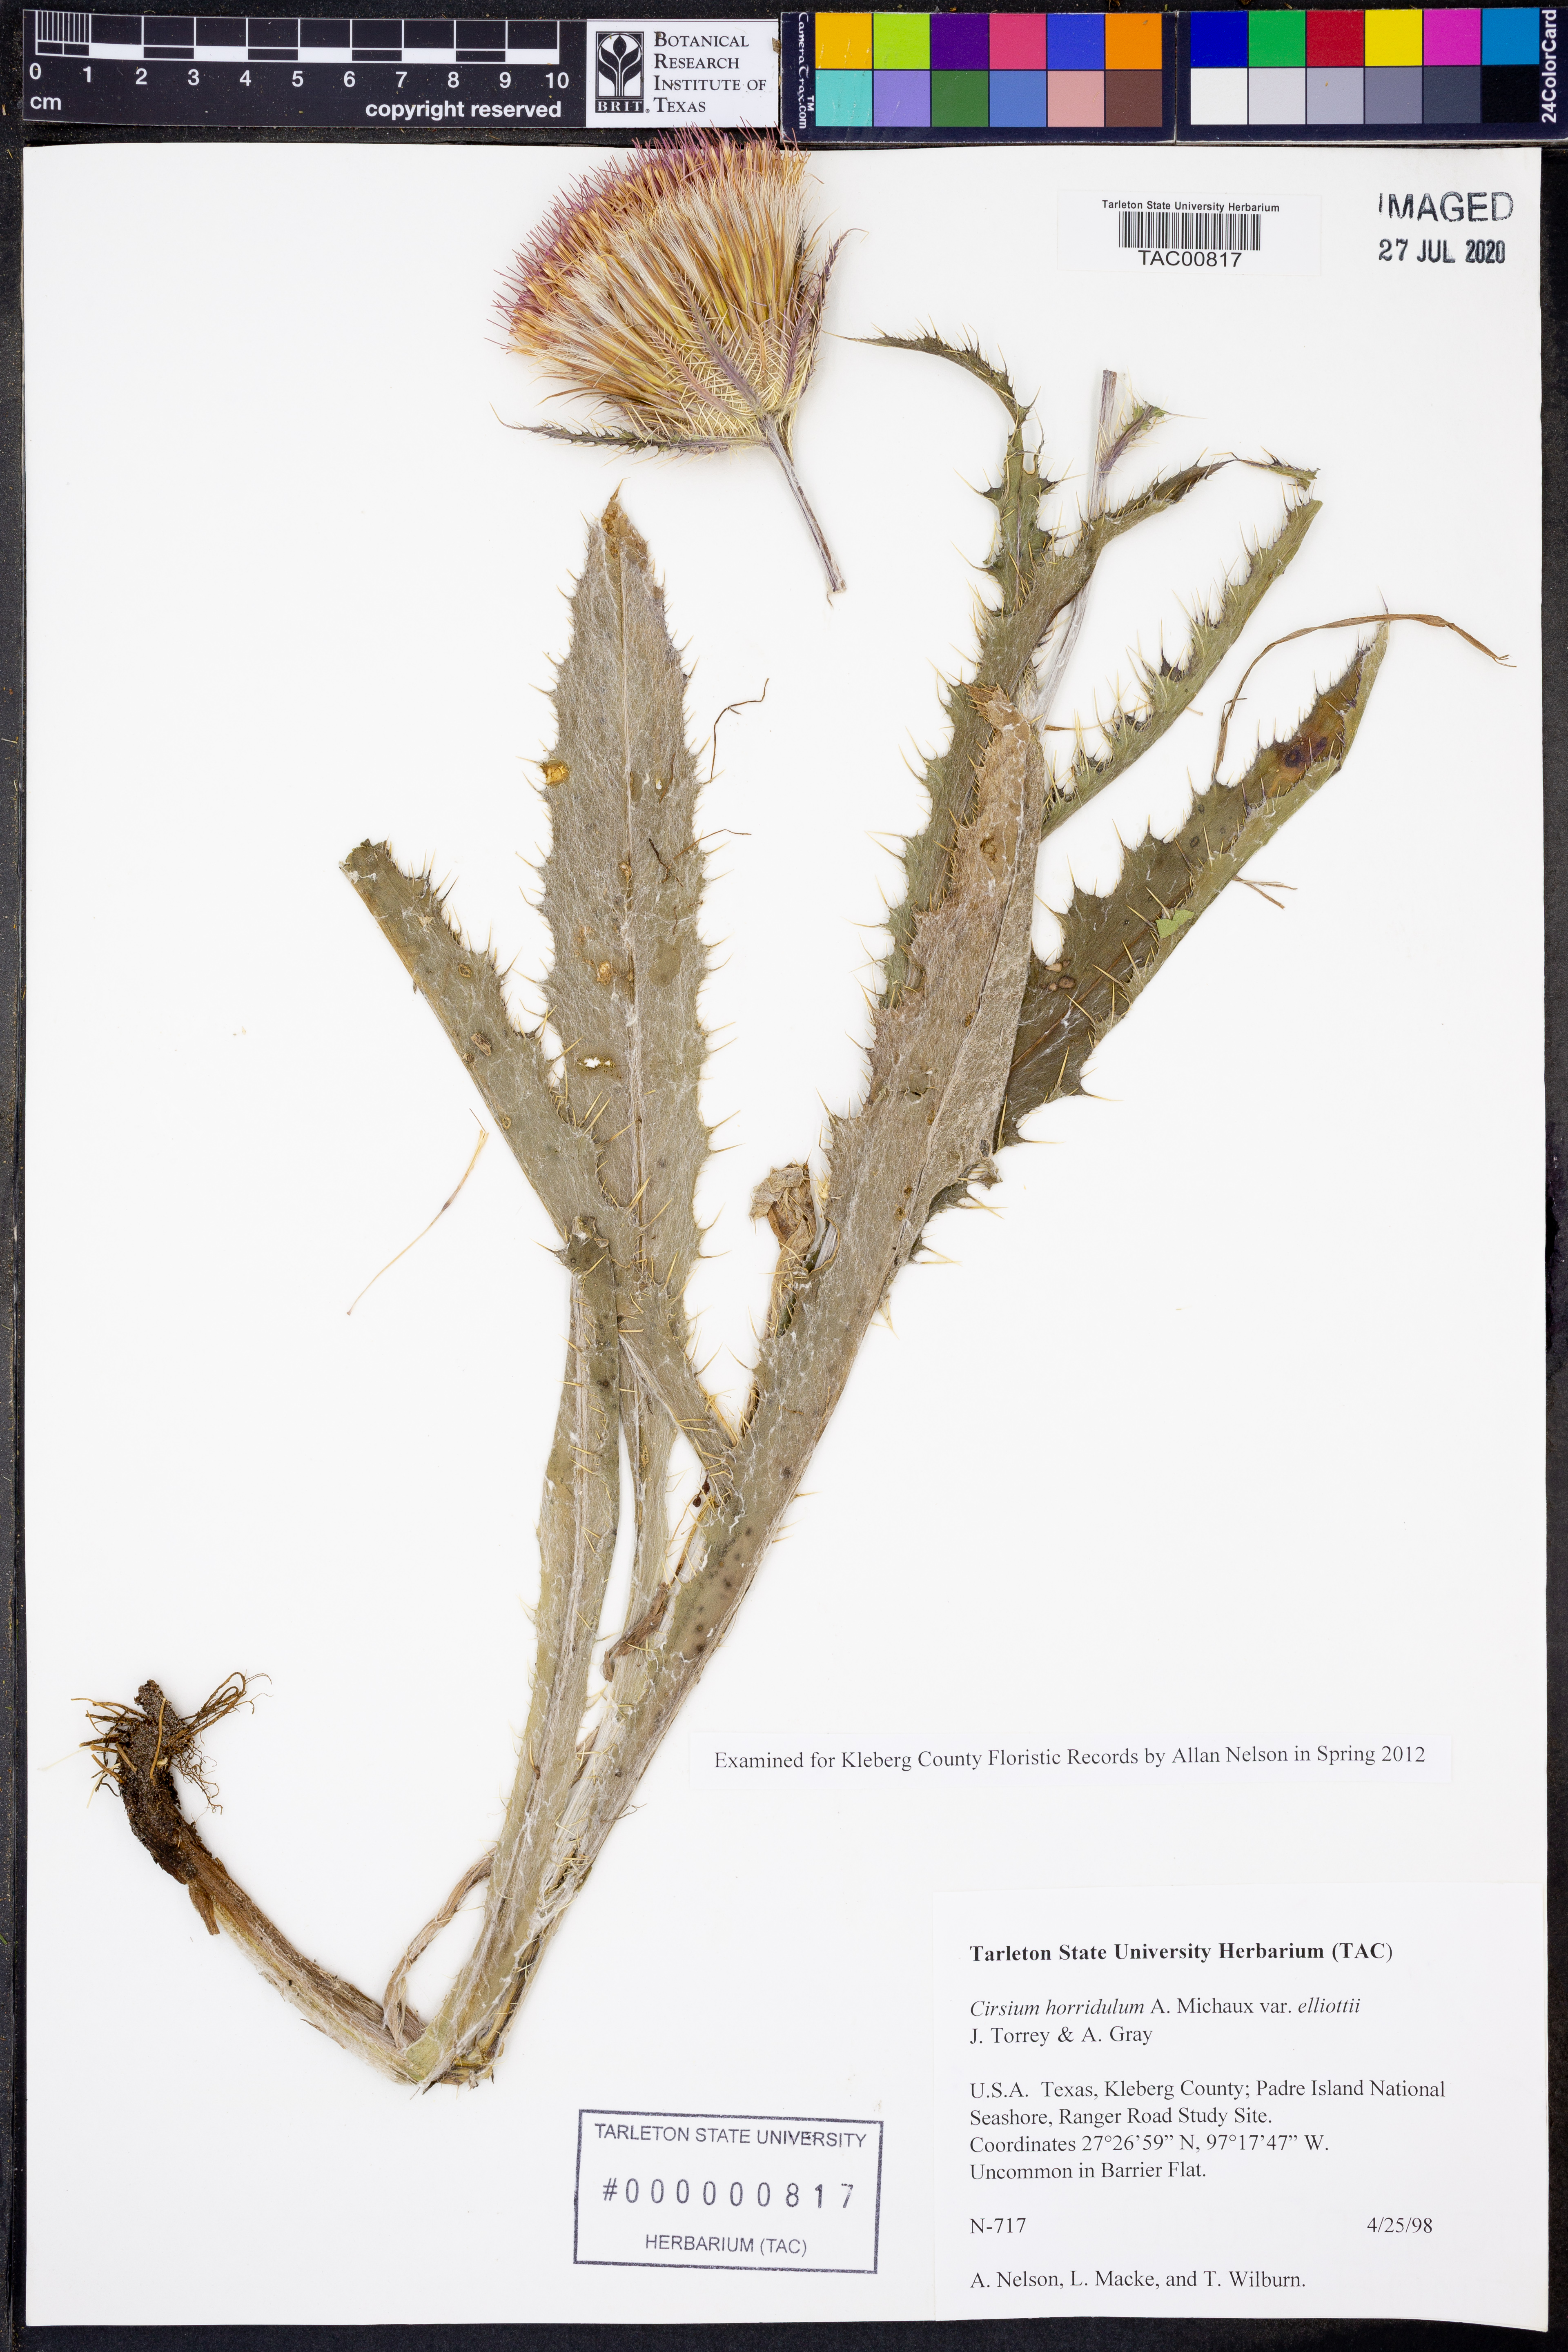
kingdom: Plantae
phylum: Tracheophyta
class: Magnoliopsida
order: Asterales
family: Asteraceae
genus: Cirsium
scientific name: Cirsium horridulum
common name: Bristly thistle
